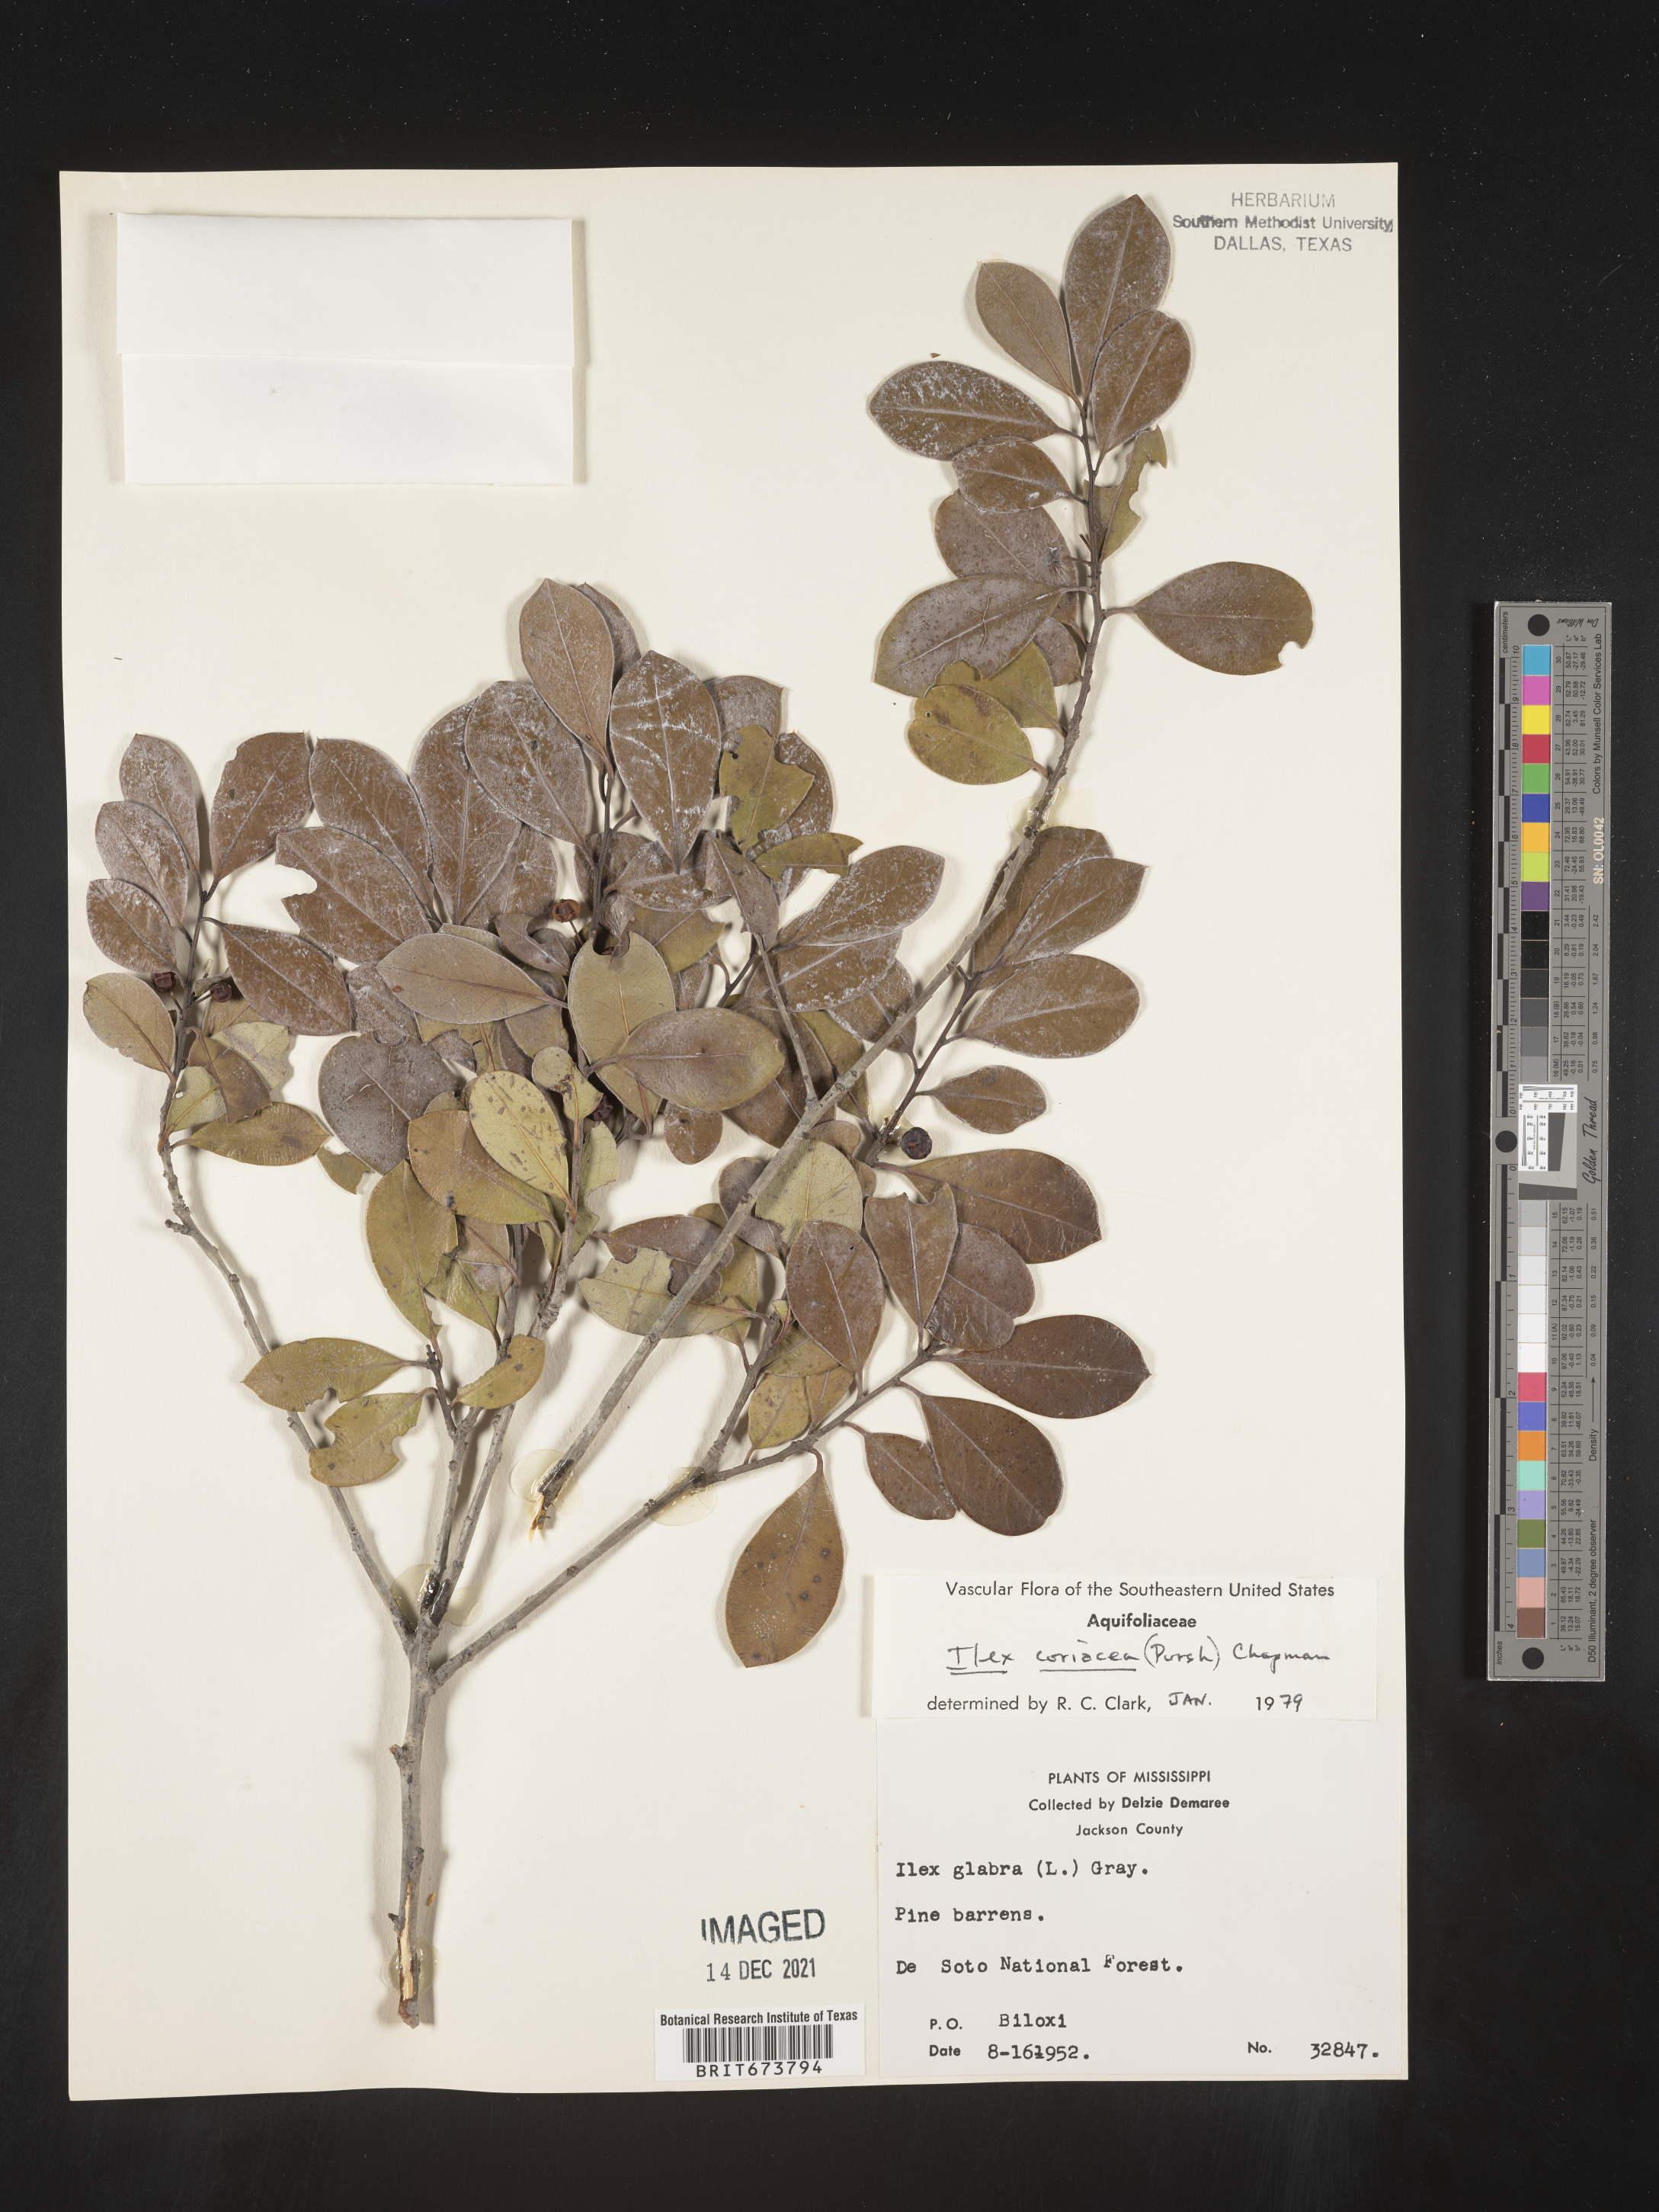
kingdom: Plantae
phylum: Tracheophyta
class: Magnoliopsida
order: Aquifoliales
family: Aquifoliaceae
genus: Ilex
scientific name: Ilex coriacea
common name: Sweet gallberry
